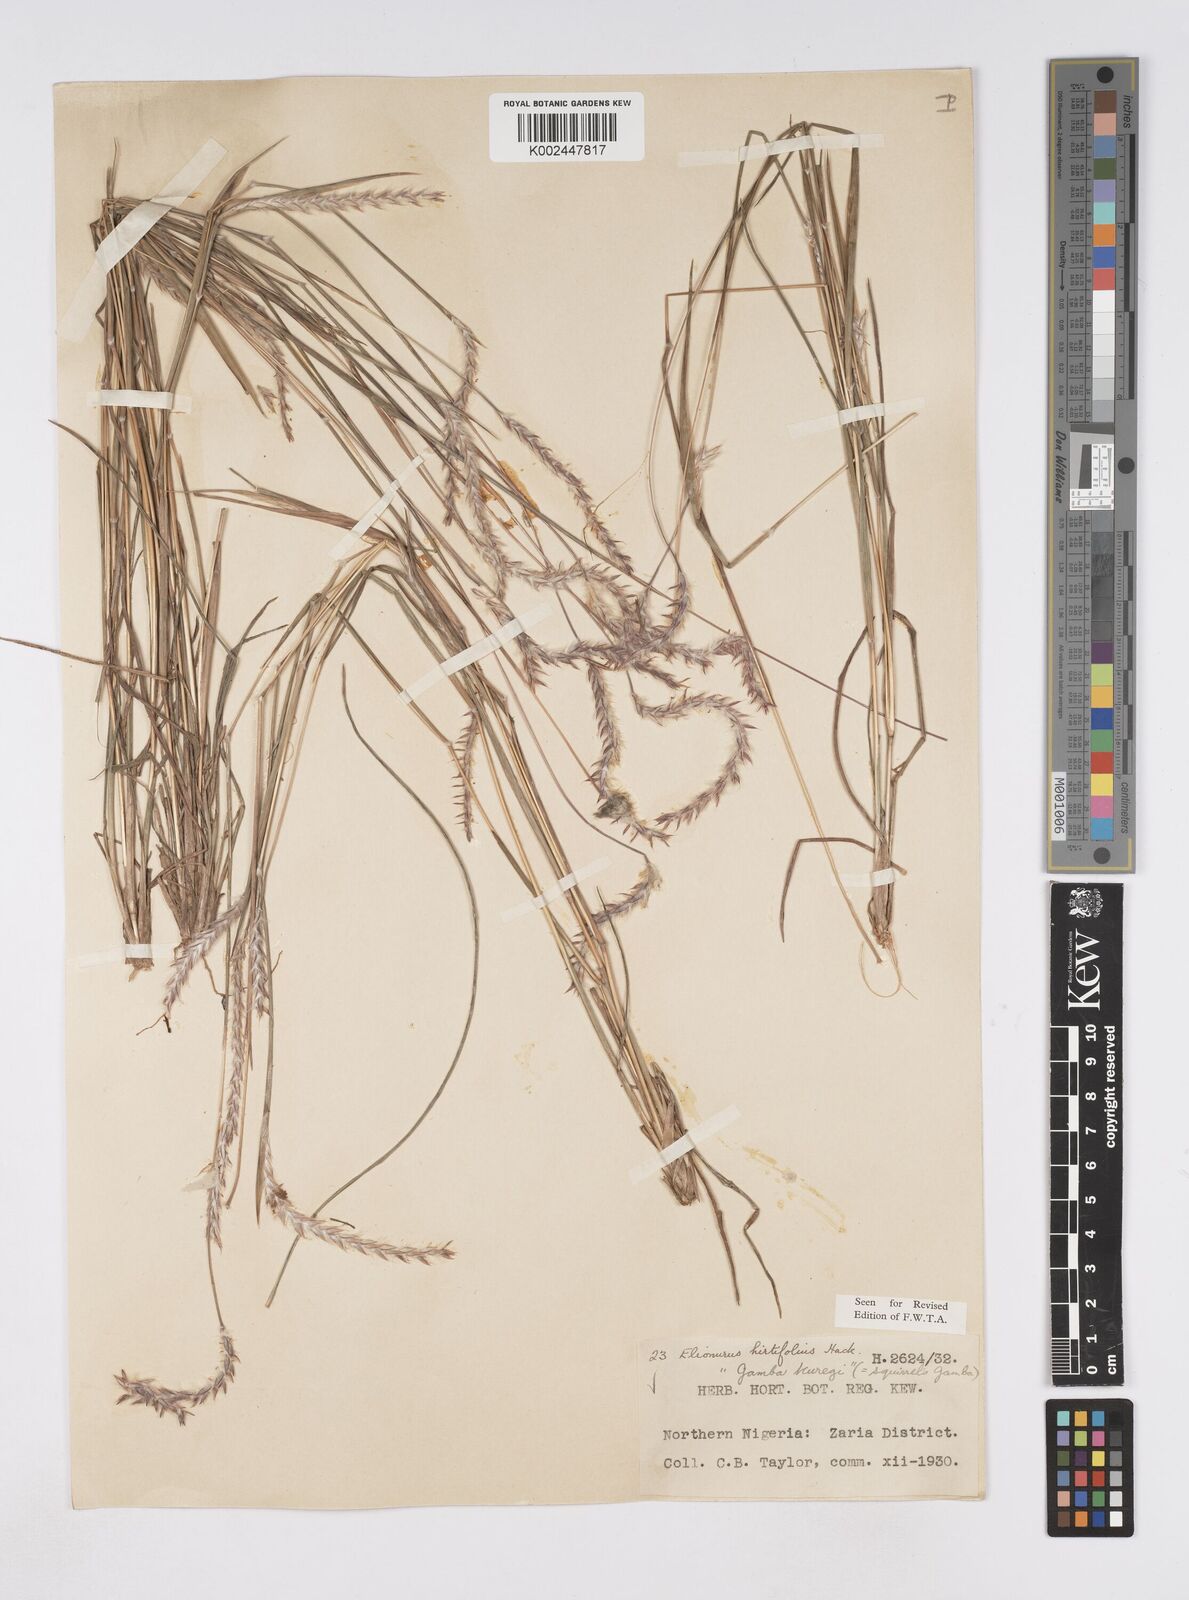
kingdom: Plantae
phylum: Tracheophyta
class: Liliopsida
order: Poales
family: Poaceae
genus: Elionurus
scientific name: Elionurus hirtifolius
